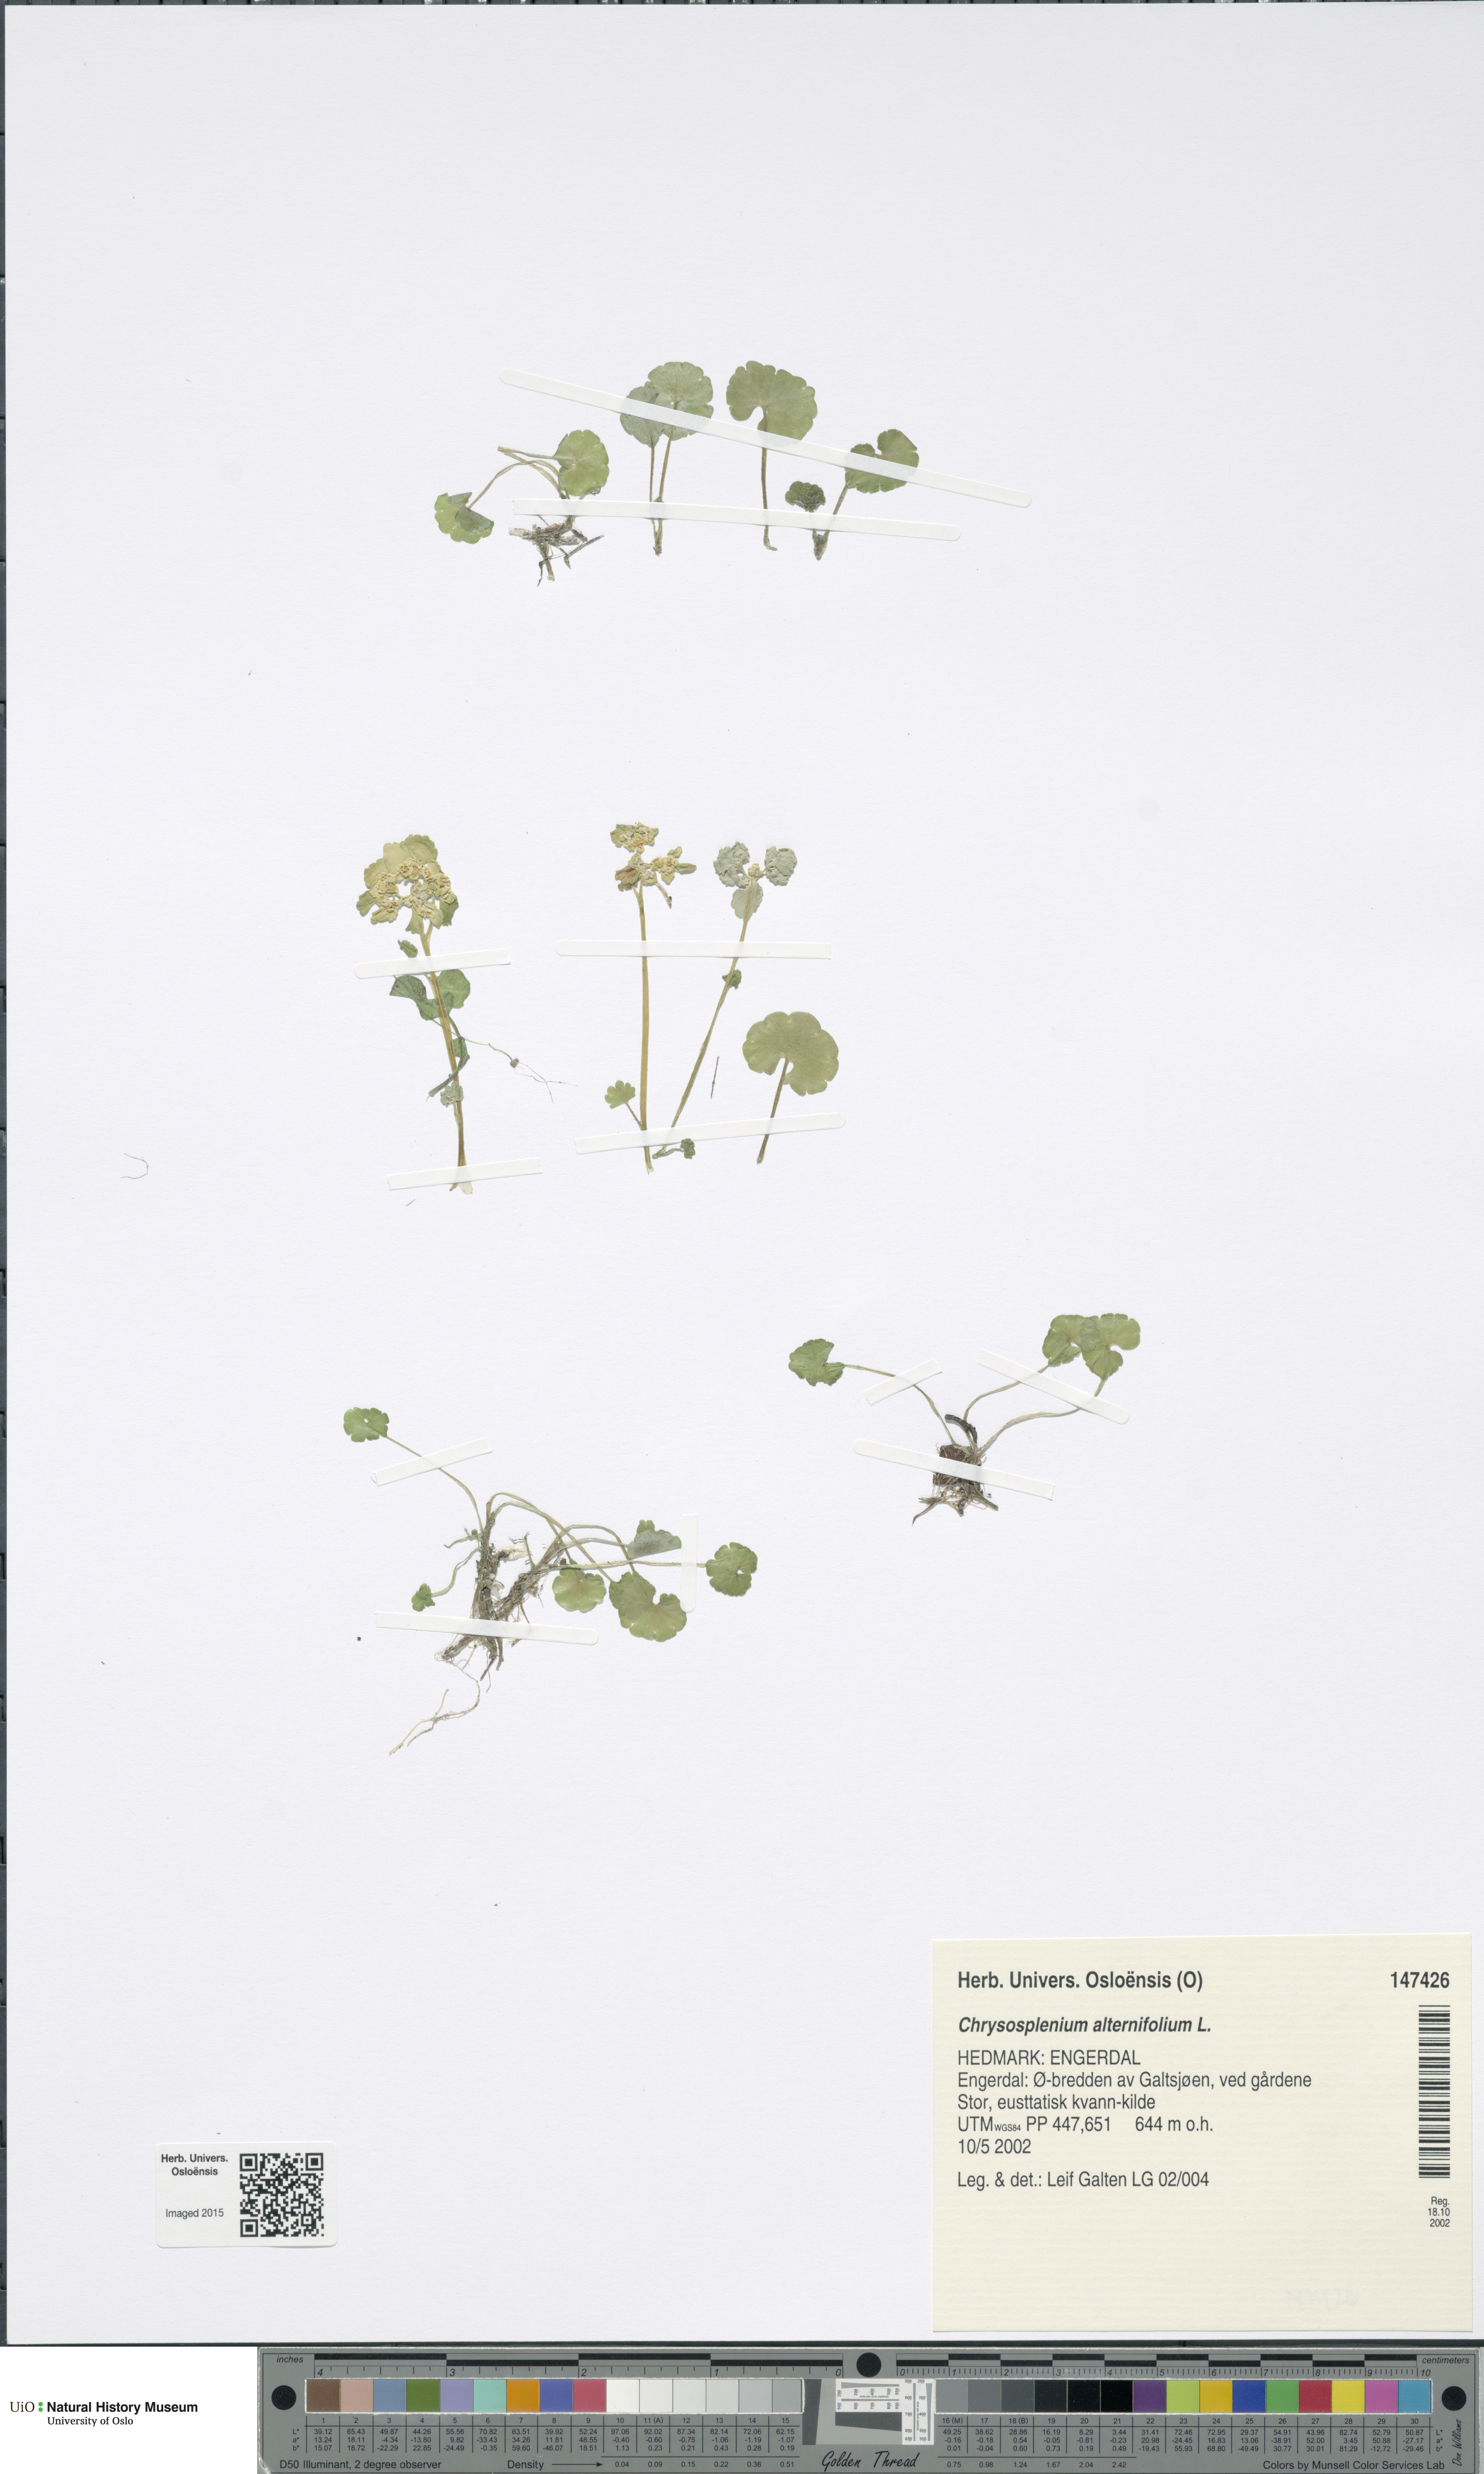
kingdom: Plantae
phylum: Tracheophyta
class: Magnoliopsida
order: Saxifragales
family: Saxifragaceae
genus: Chrysosplenium
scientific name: Chrysosplenium alternifolium
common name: Alternate-leaved golden-saxifrage
